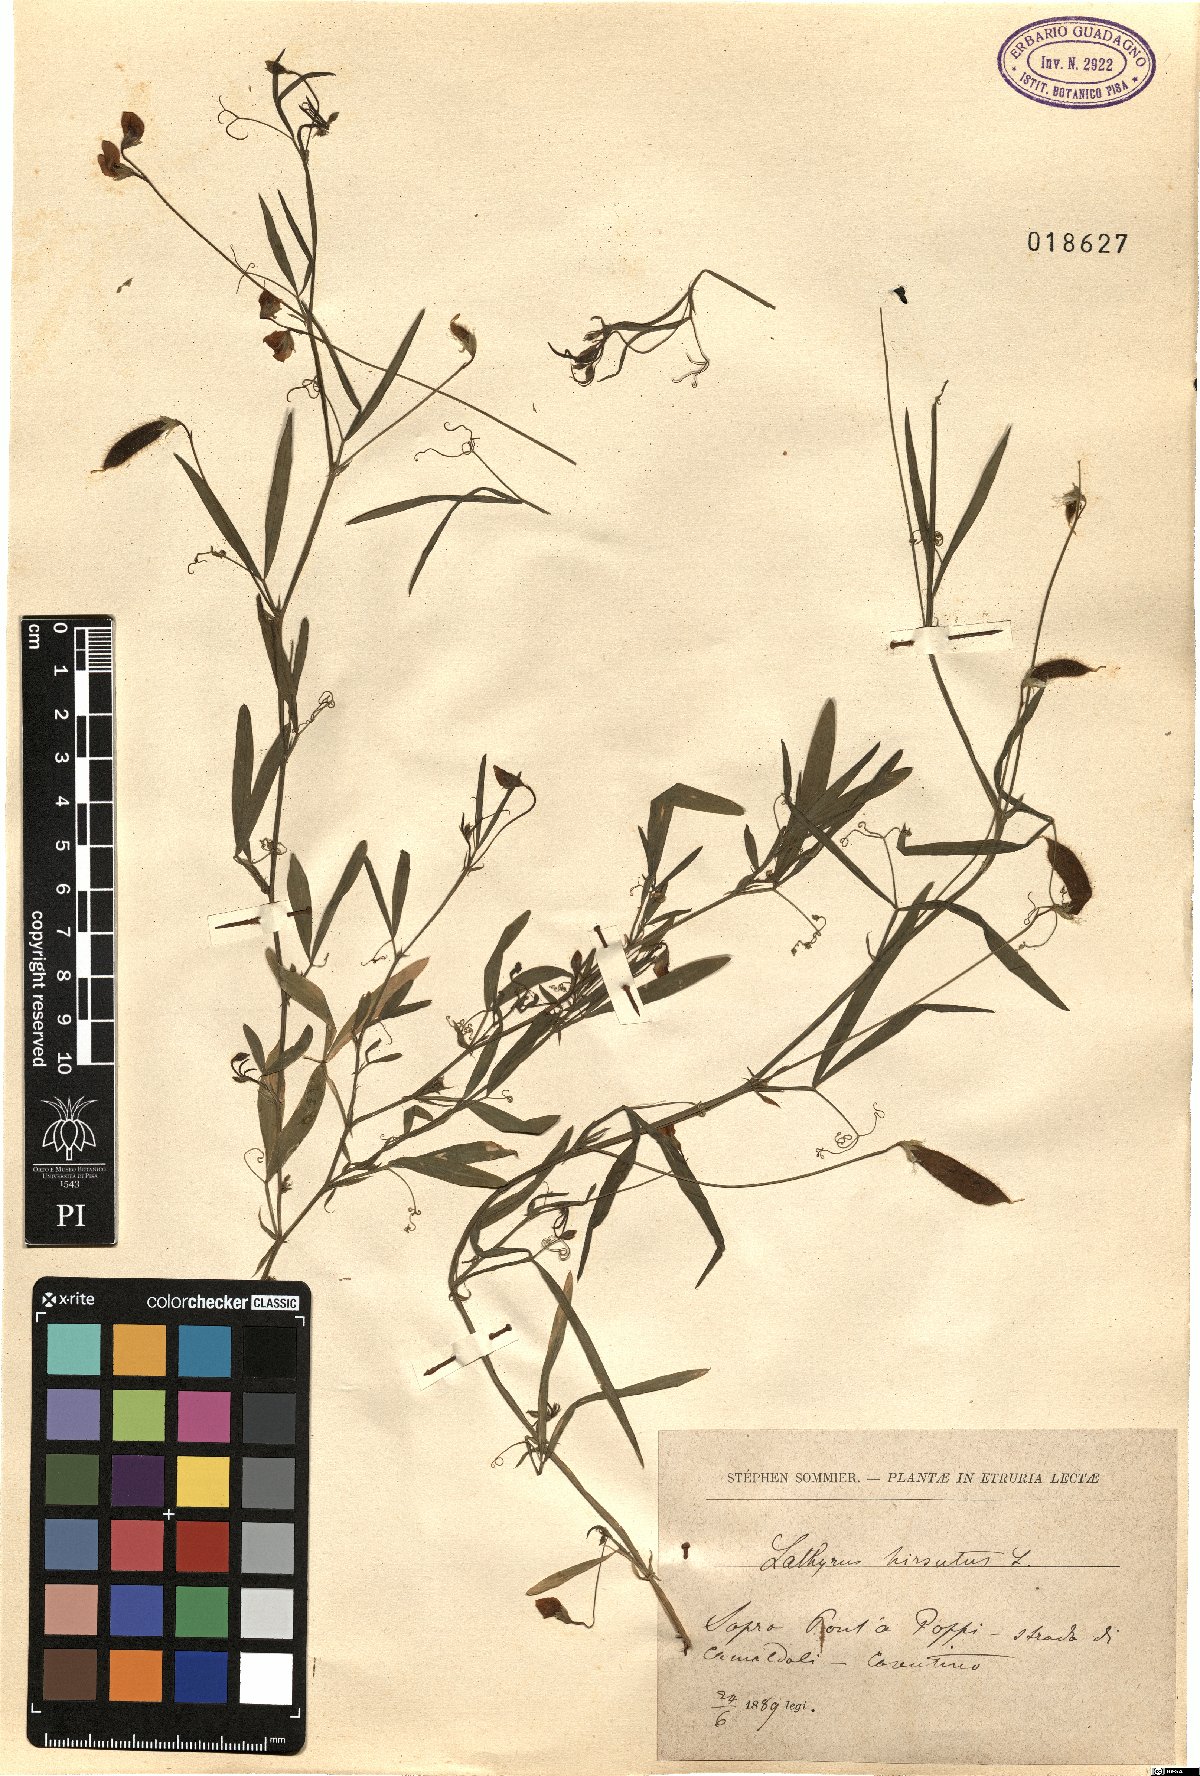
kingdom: Plantae
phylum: Tracheophyta
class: Magnoliopsida
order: Fabales
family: Fabaceae
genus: Lathyrus
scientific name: Lathyrus hirsutus
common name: Hairy vetchling
